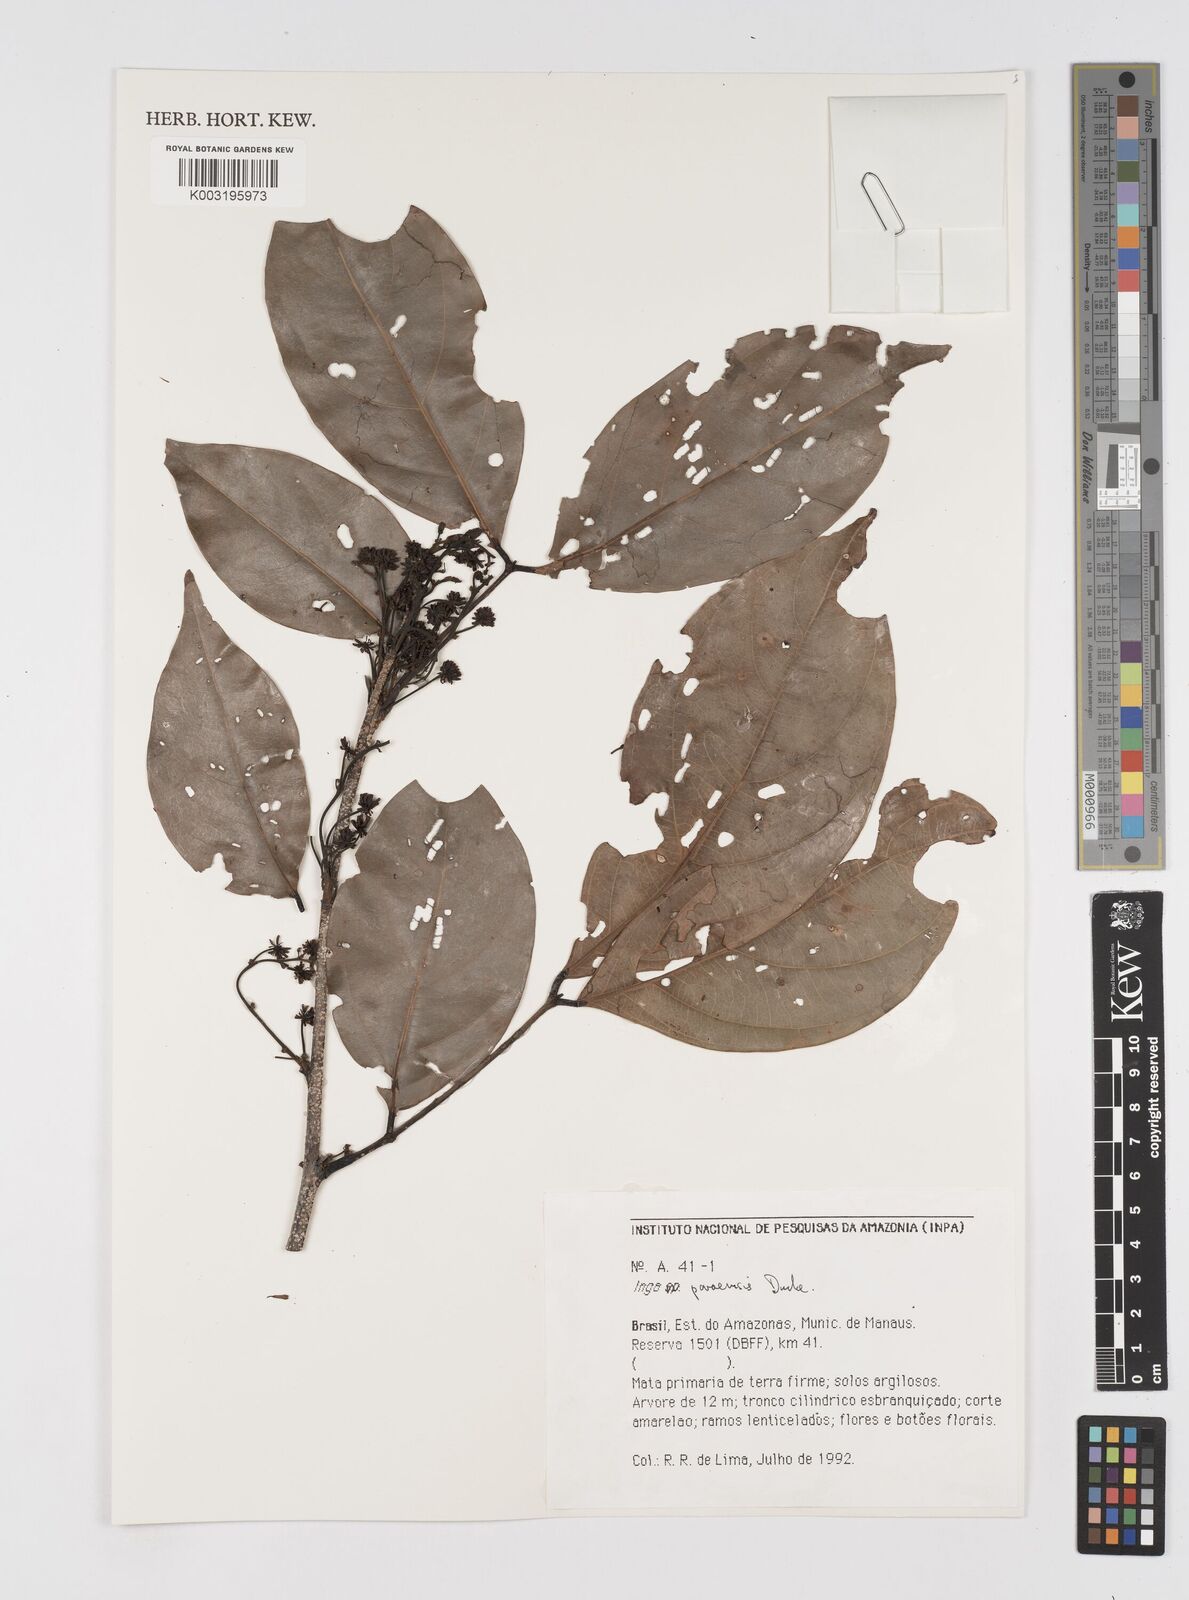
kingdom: Plantae
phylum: Tracheophyta
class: Magnoliopsida
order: Fabales
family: Fabaceae
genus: Inga
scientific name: Inga paraensis
